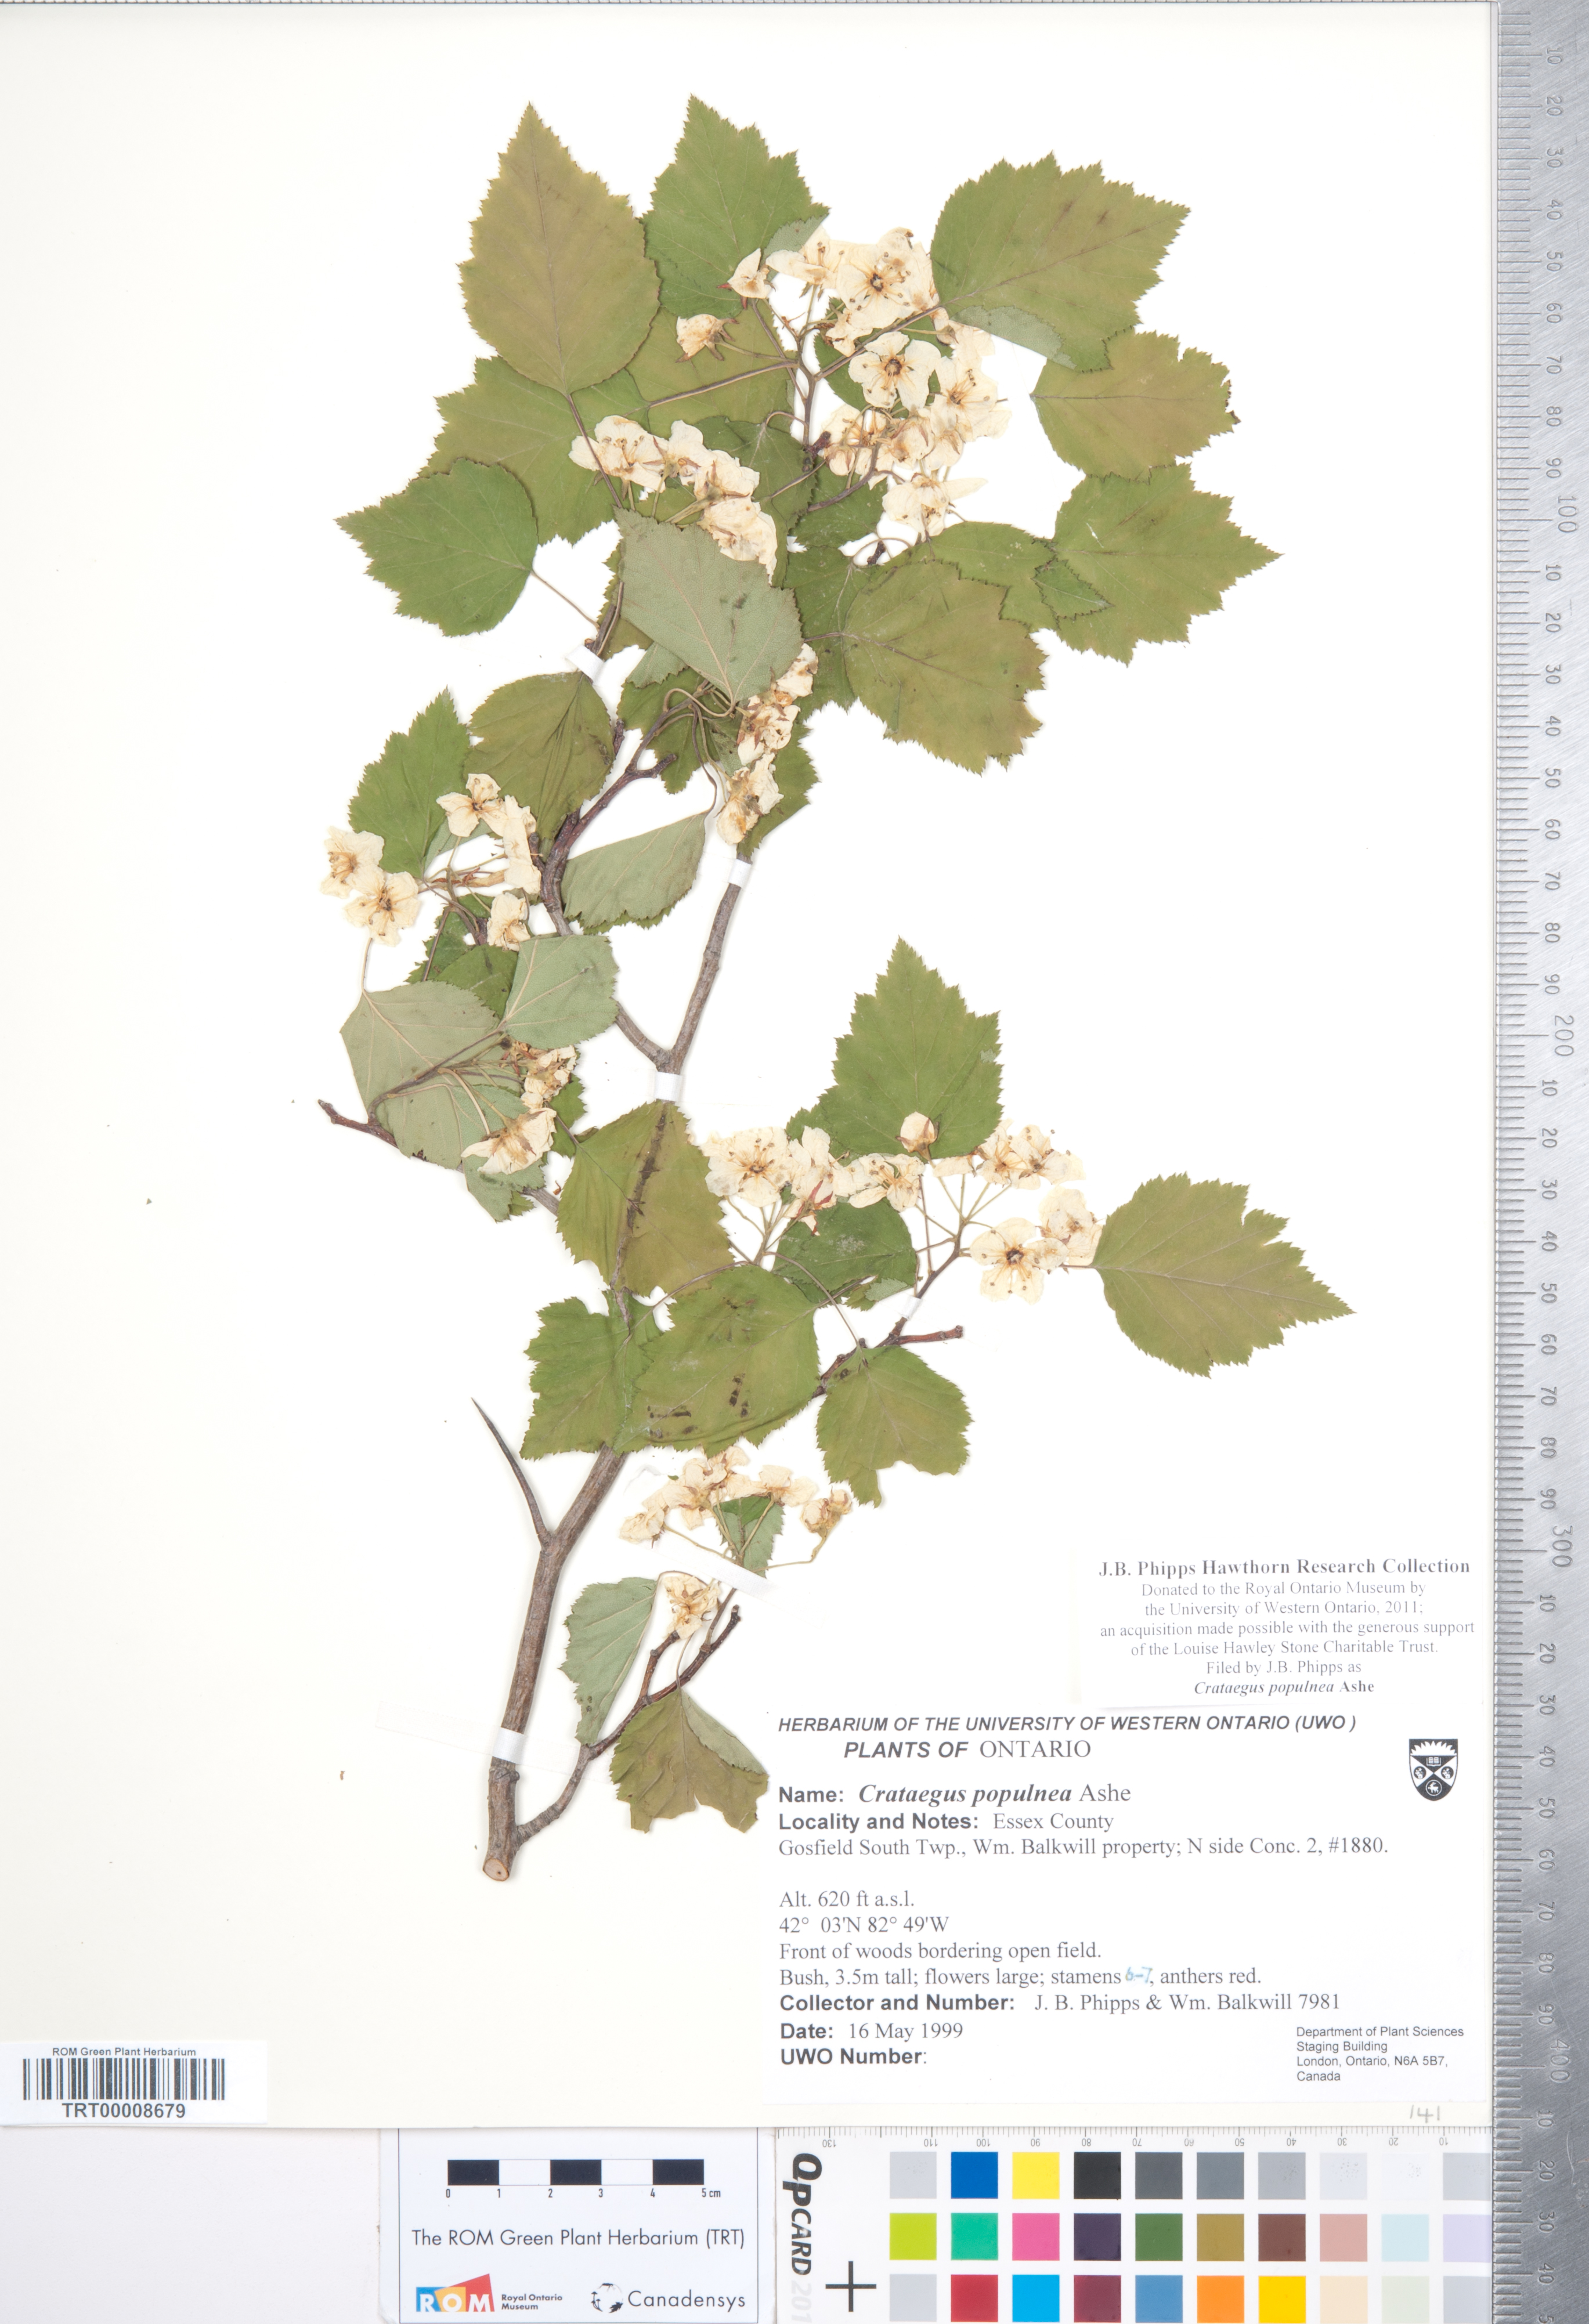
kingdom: Plantae
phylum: Tracheophyta
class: Magnoliopsida
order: Rosales
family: Rosaceae
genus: Crataegus
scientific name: Crataegus populnea
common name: Adorned hawthorn
